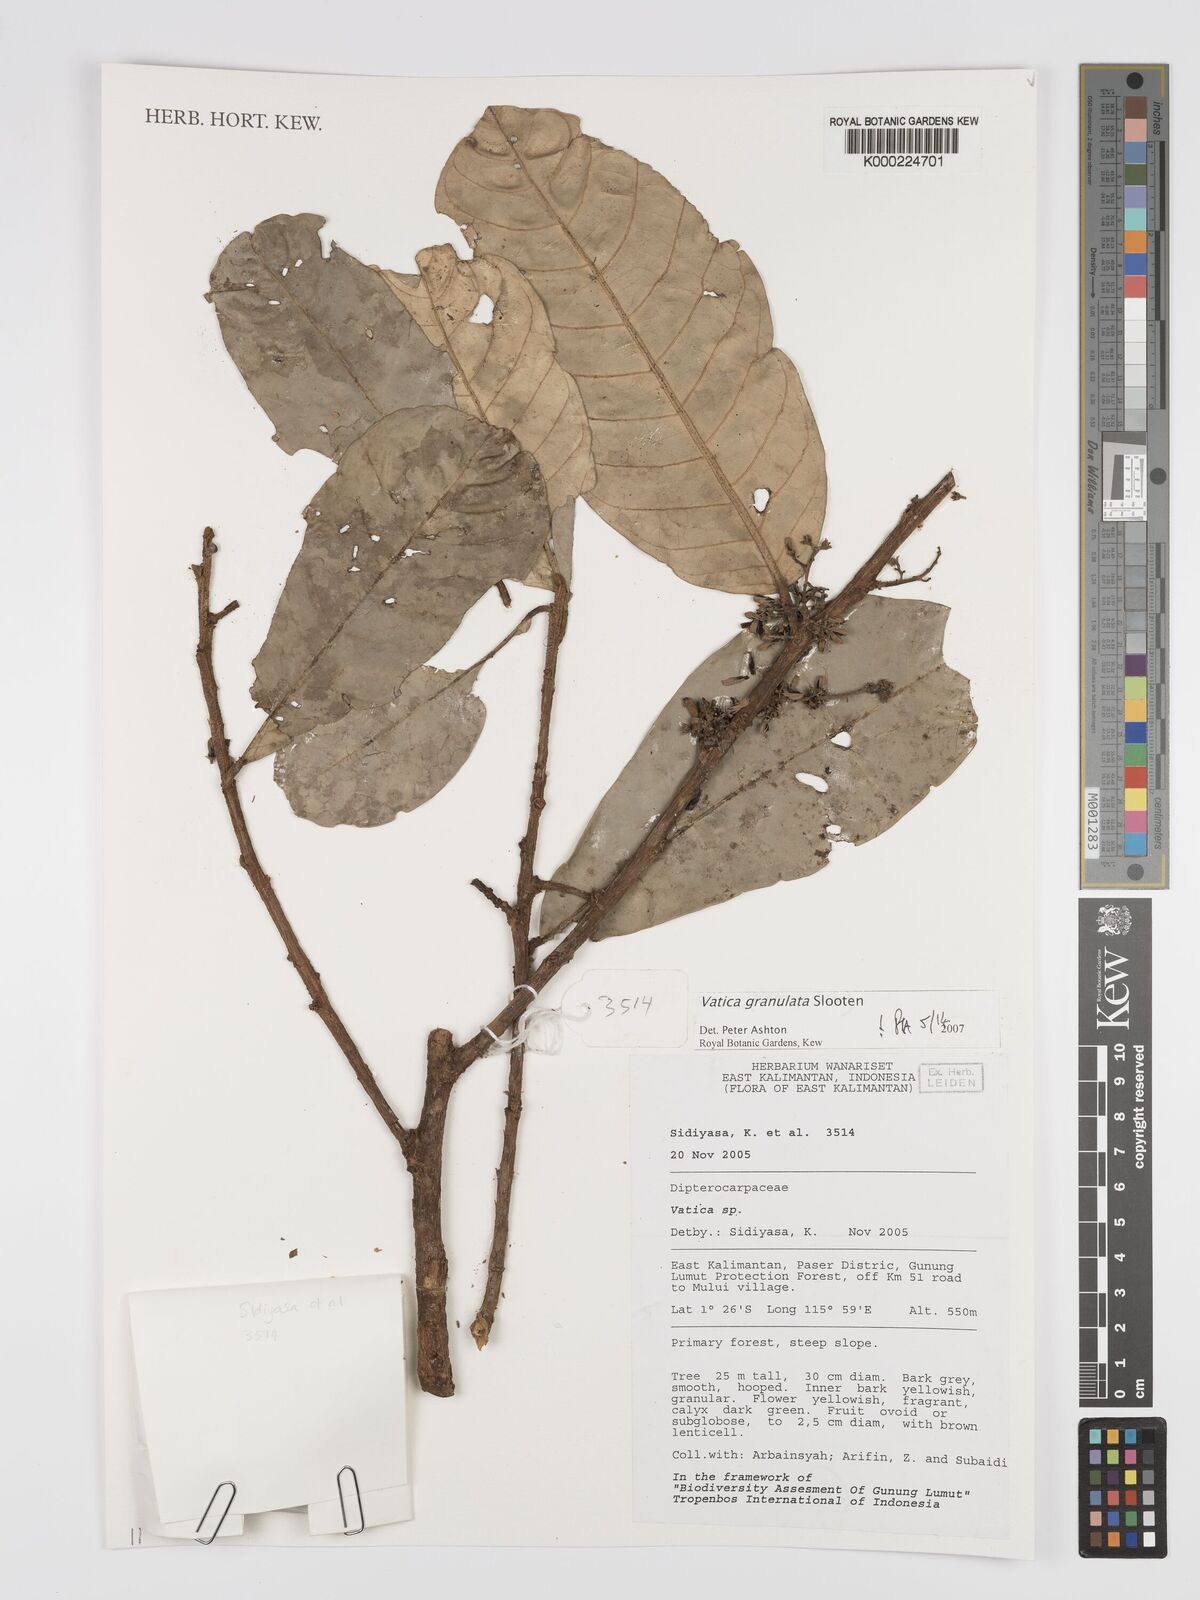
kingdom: Plantae
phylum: Tracheophyta
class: Magnoliopsida
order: Malvales
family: Dipterocarpaceae
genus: Vatica
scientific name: Vatica granulata
